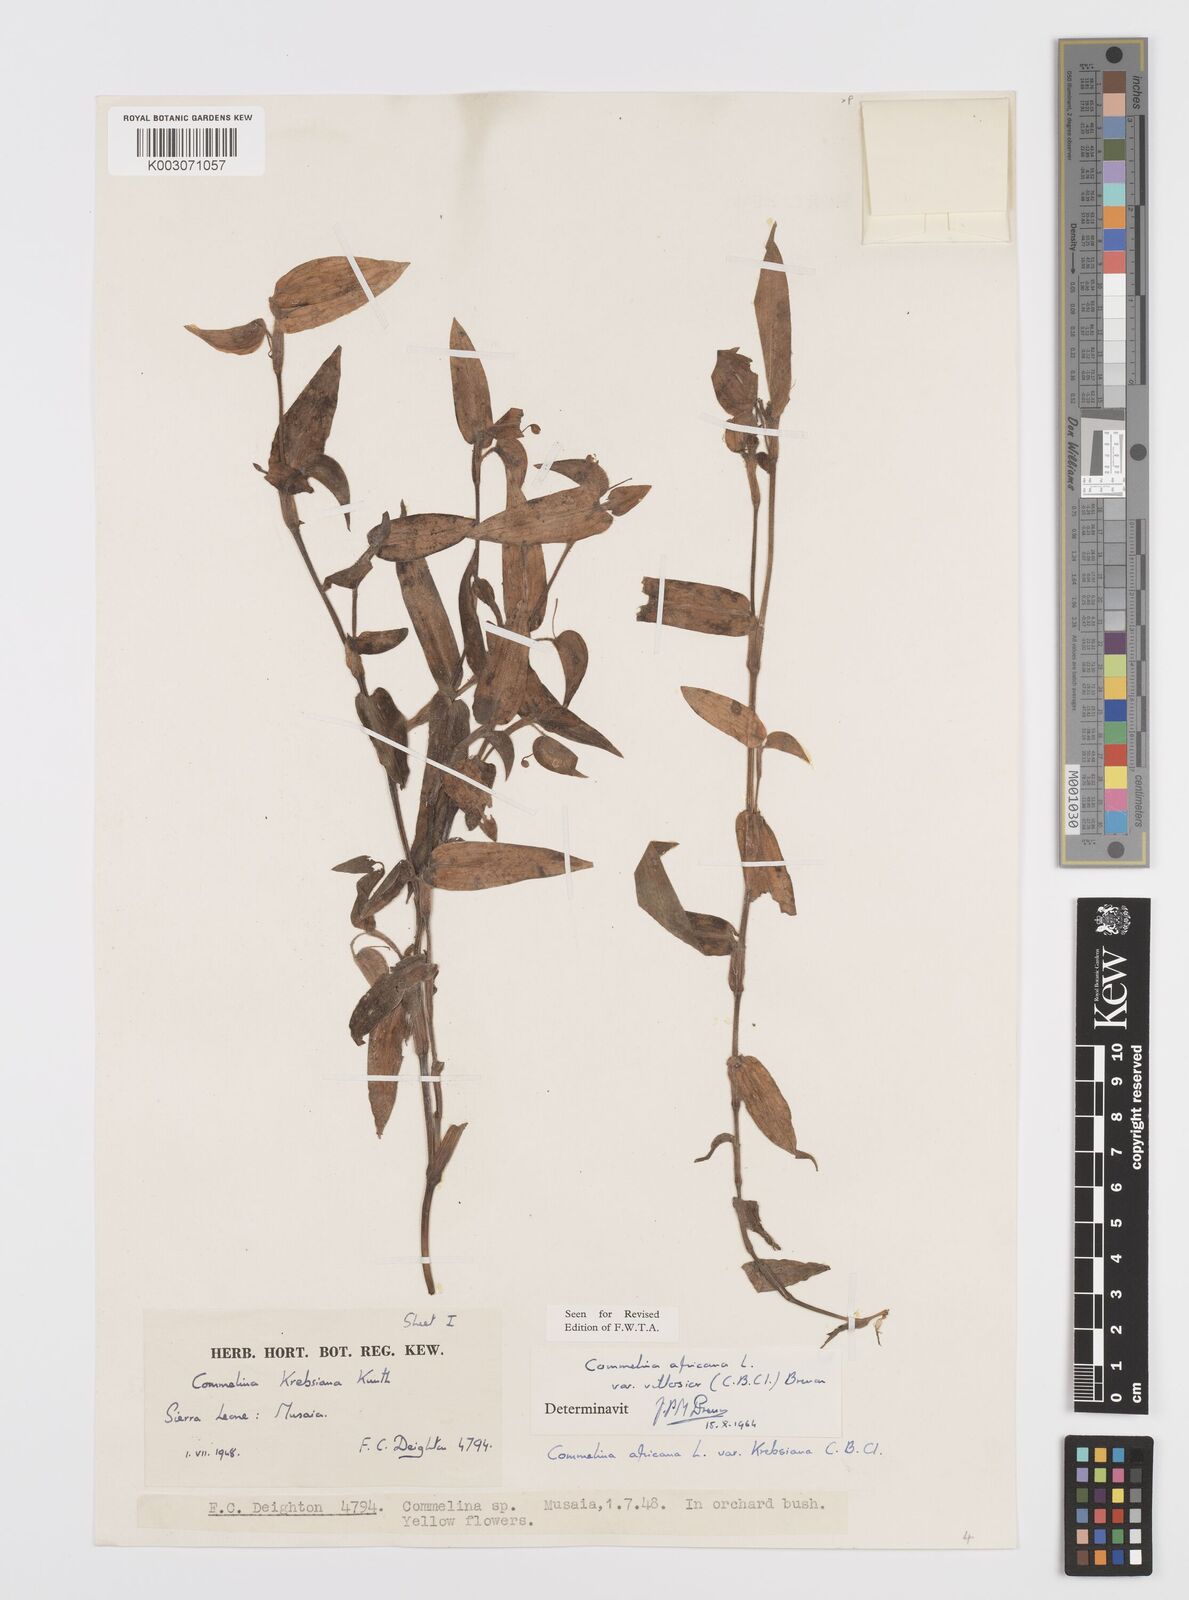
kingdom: Plantae
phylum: Tracheophyta
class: Liliopsida
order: Commelinales
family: Commelinaceae
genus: Commelina
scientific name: Commelina africana
